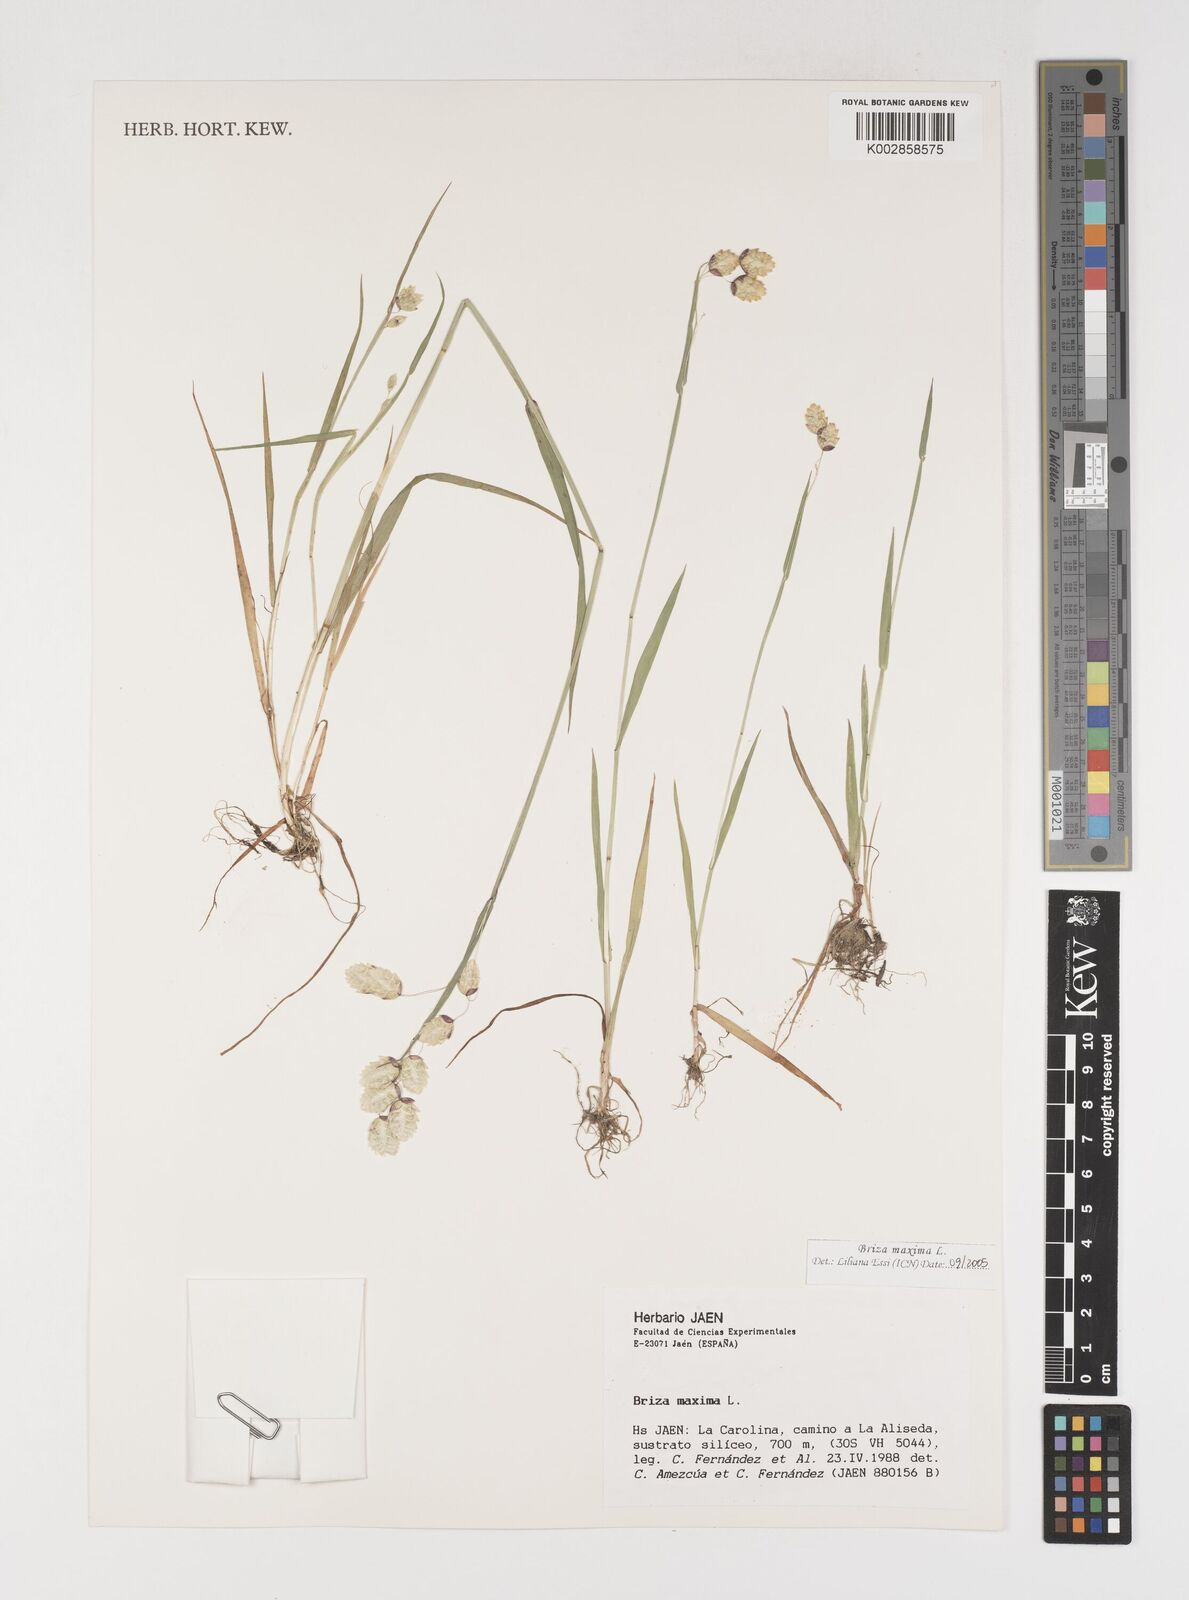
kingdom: Plantae
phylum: Tracheophyta
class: Liliopsida
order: Poales
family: Poaceae
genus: Briza
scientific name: Briza maxima
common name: Big quakinggrass
